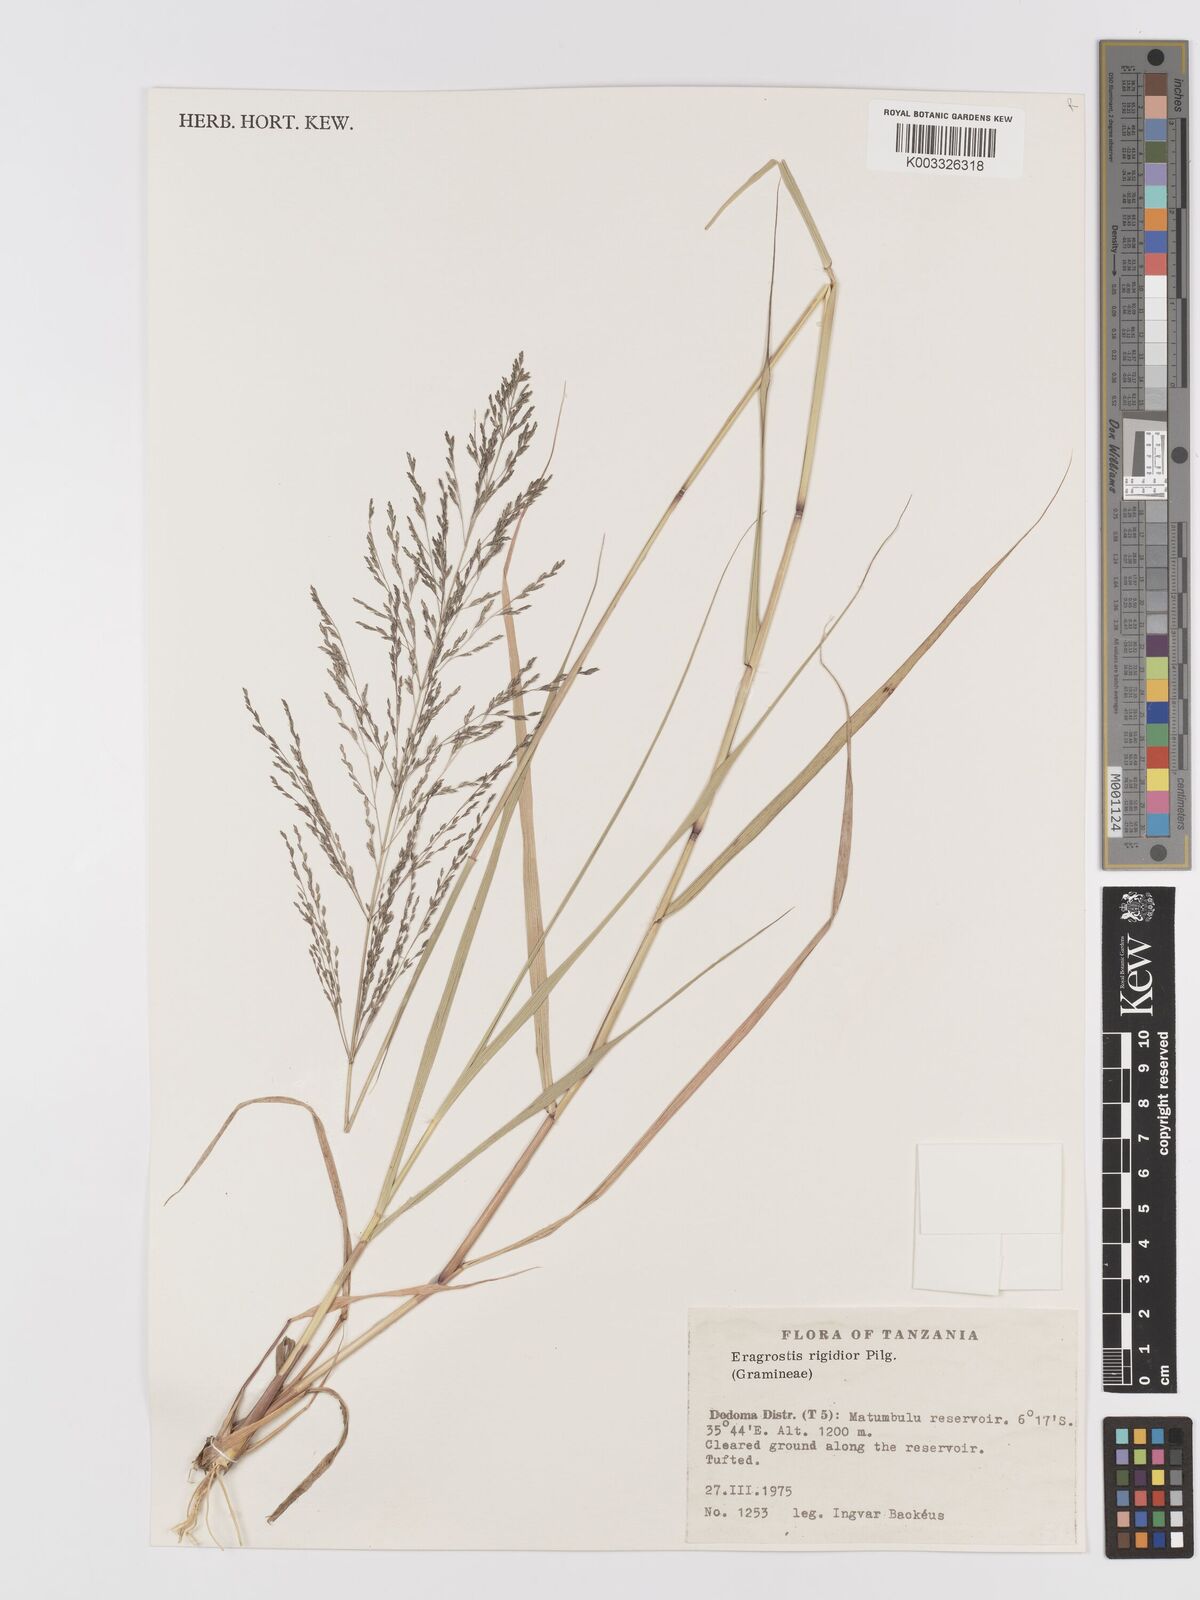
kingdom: Plantae
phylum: Tracheophyta
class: Liliopsida
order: Poales
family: Poaceae
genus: Eragrostis
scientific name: Eragrostis cylindriflora
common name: Cylinderflower lovegrass
